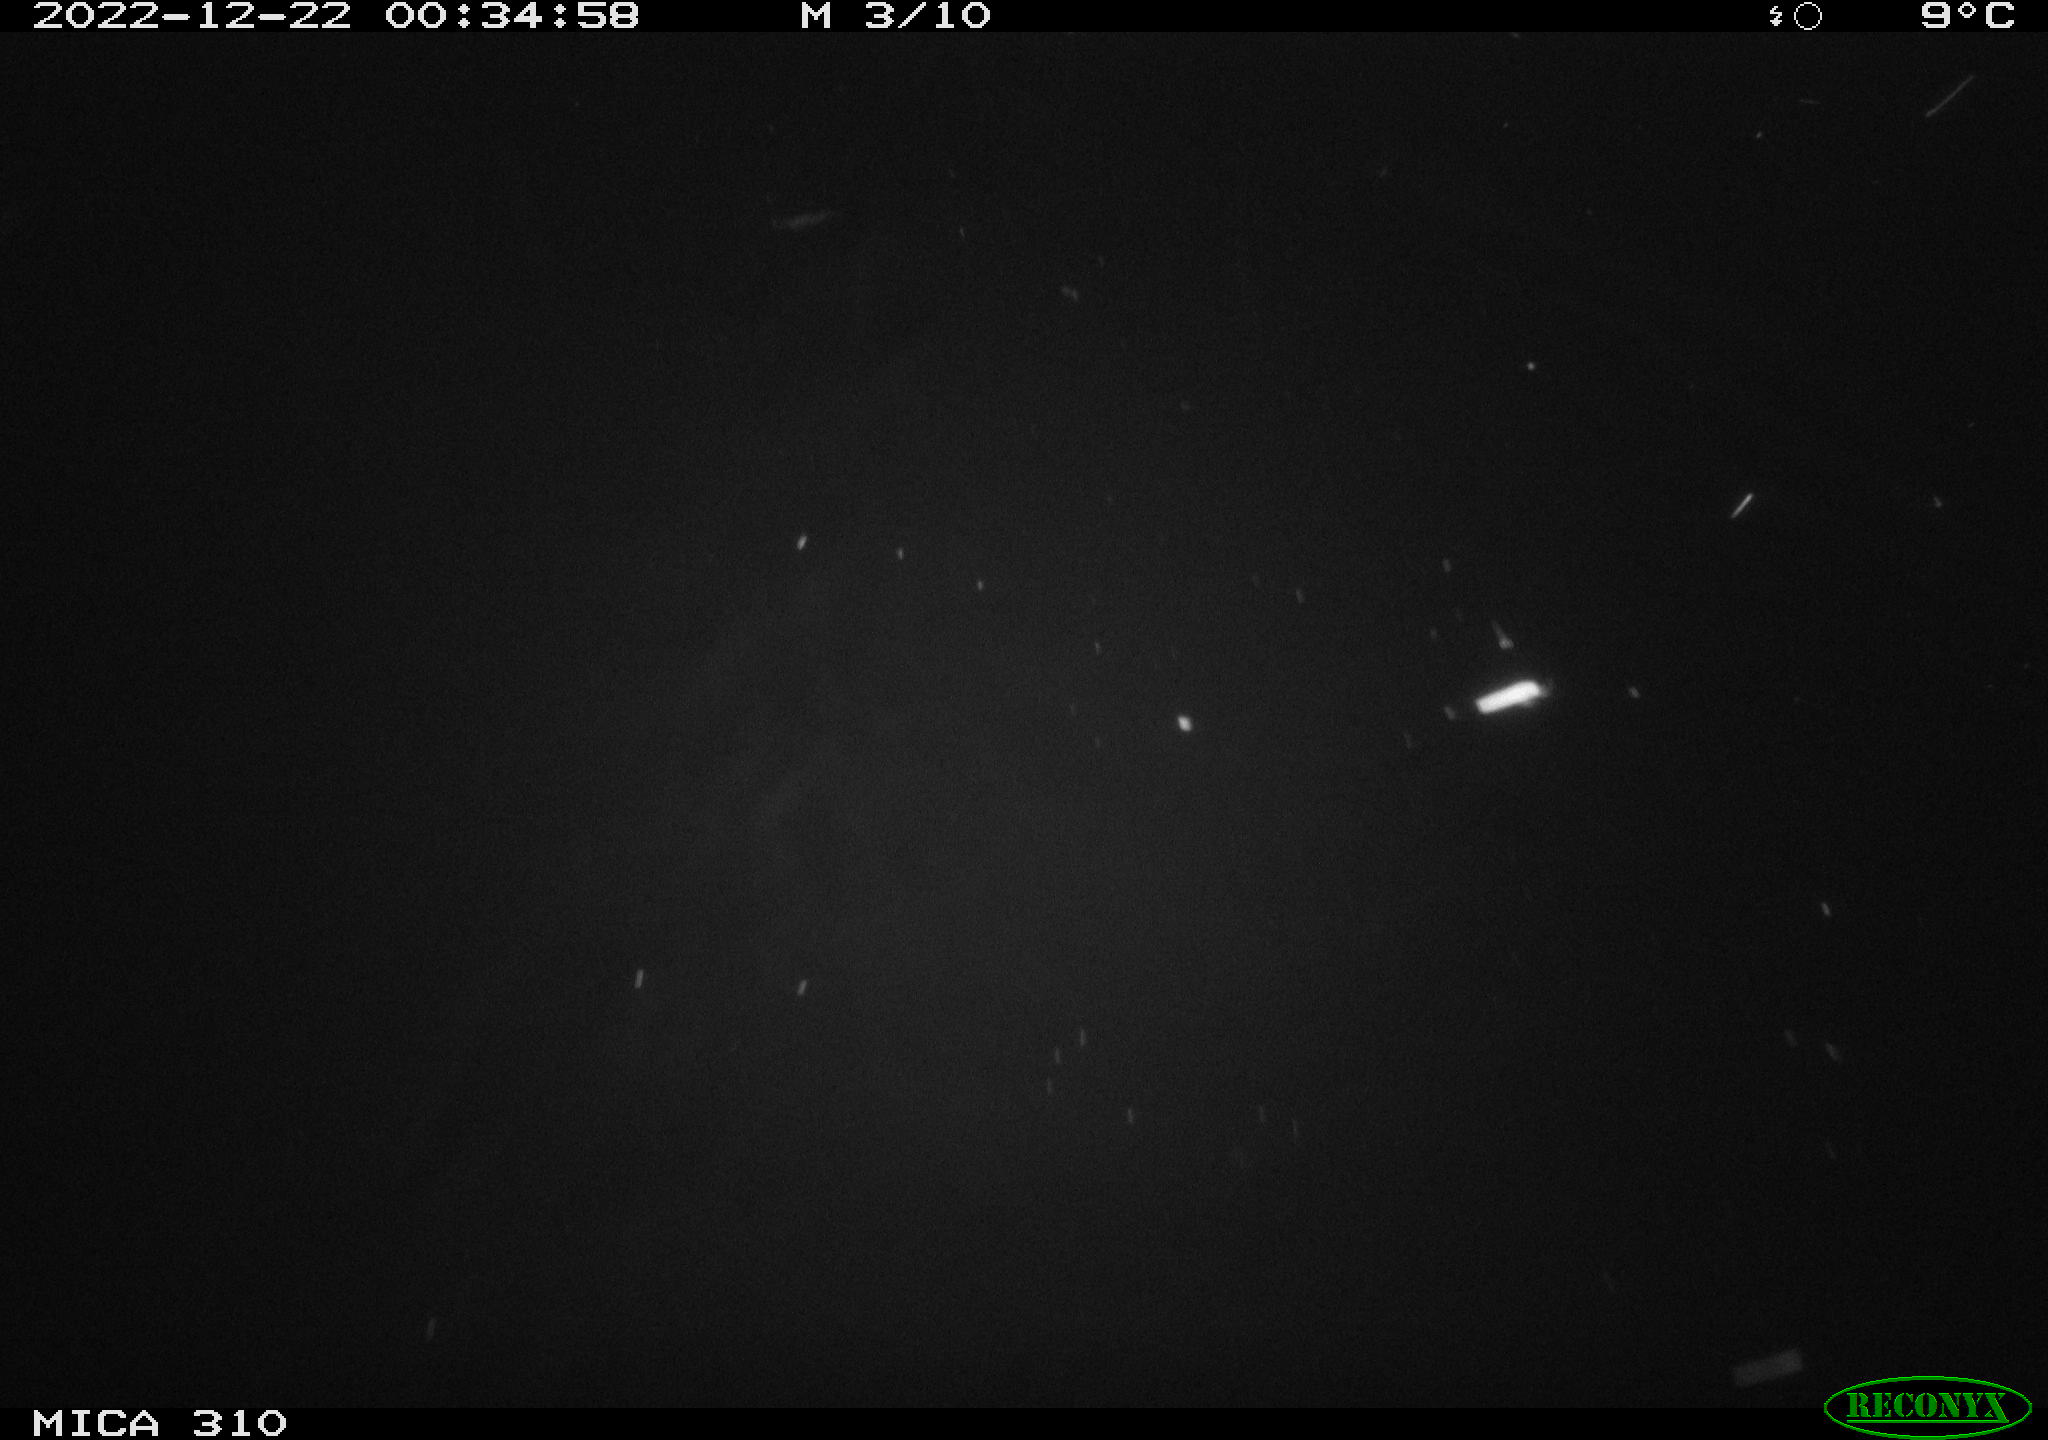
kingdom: Animalia
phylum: Chordata
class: Mammalia
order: Rodentia
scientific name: Rodentia
